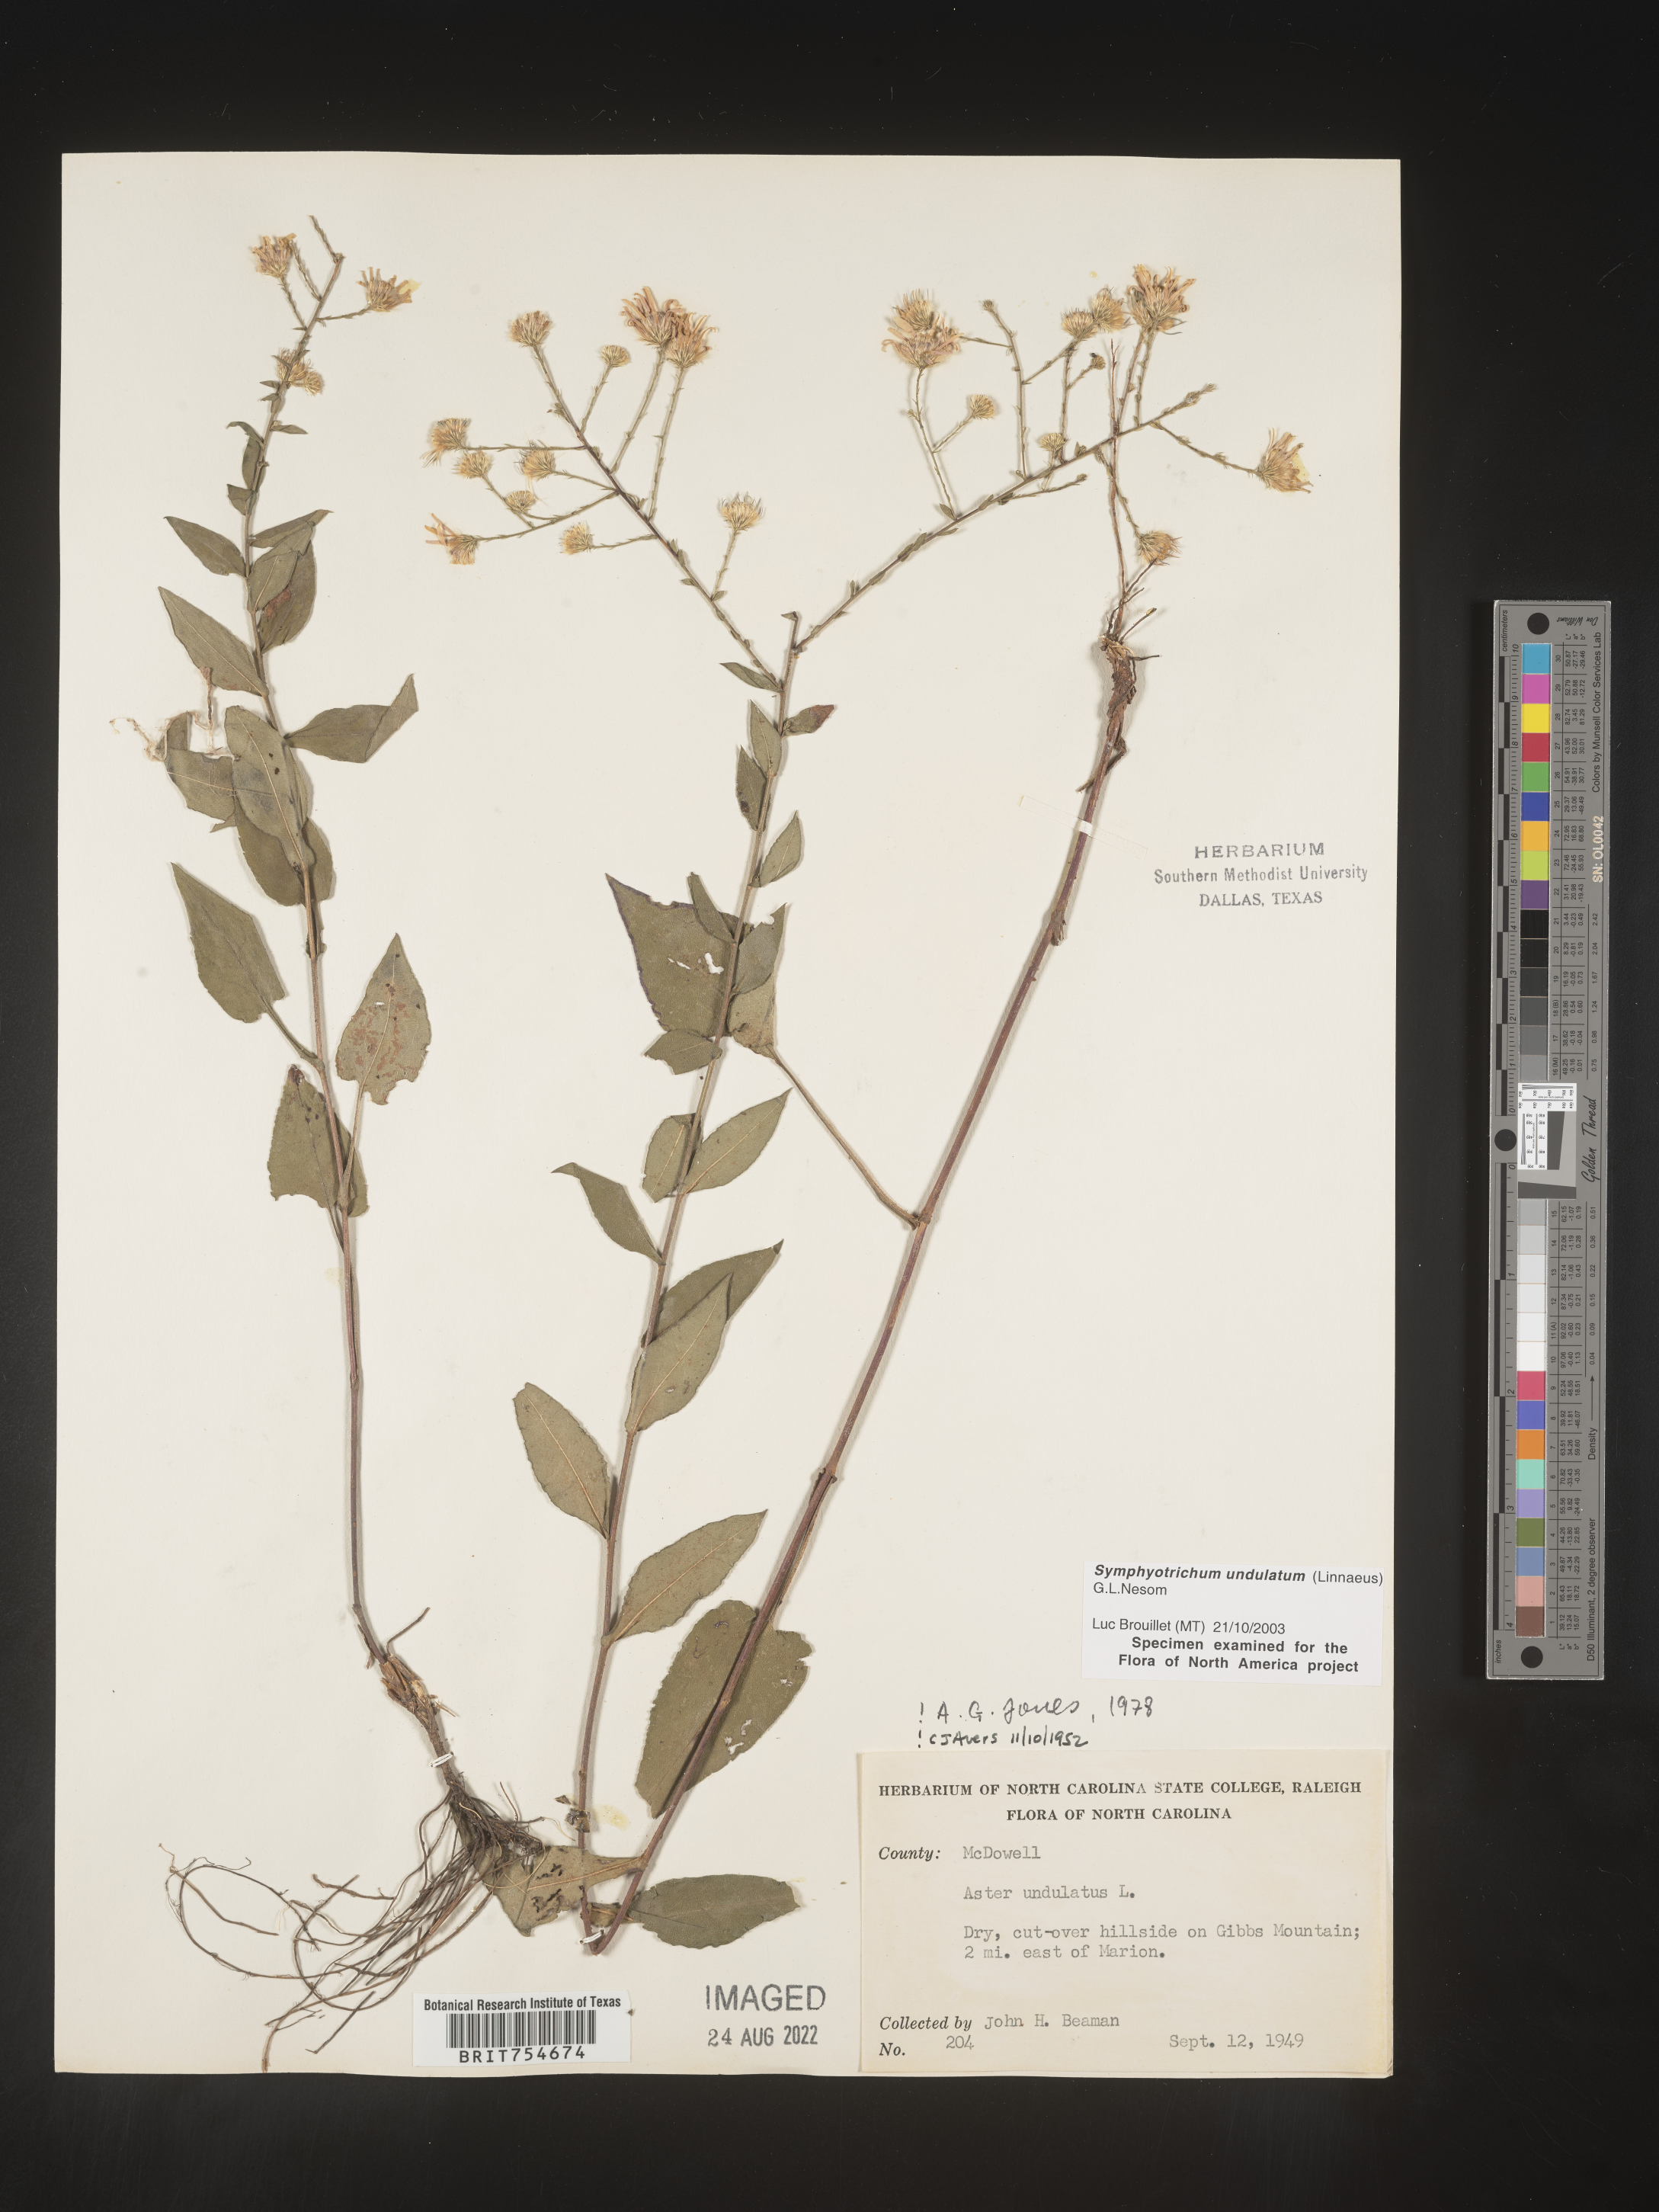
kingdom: Plantae
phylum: Tracheophyta
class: Magnoliopsida
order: Asterales
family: Asteraceae
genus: Symphyotrichum
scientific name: Symphyotrichum undulatum
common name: Clasping heart-leaf aster
